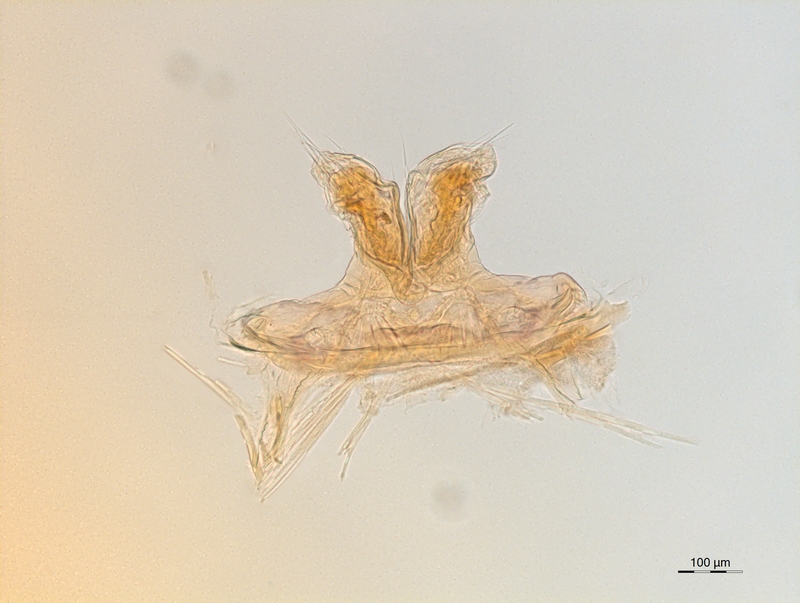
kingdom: Animalia
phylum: Arthropoda
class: Diplopoda
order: Chordeumatida
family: Attemsiidae
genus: Attemsia
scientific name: Attemsia dolinensis
